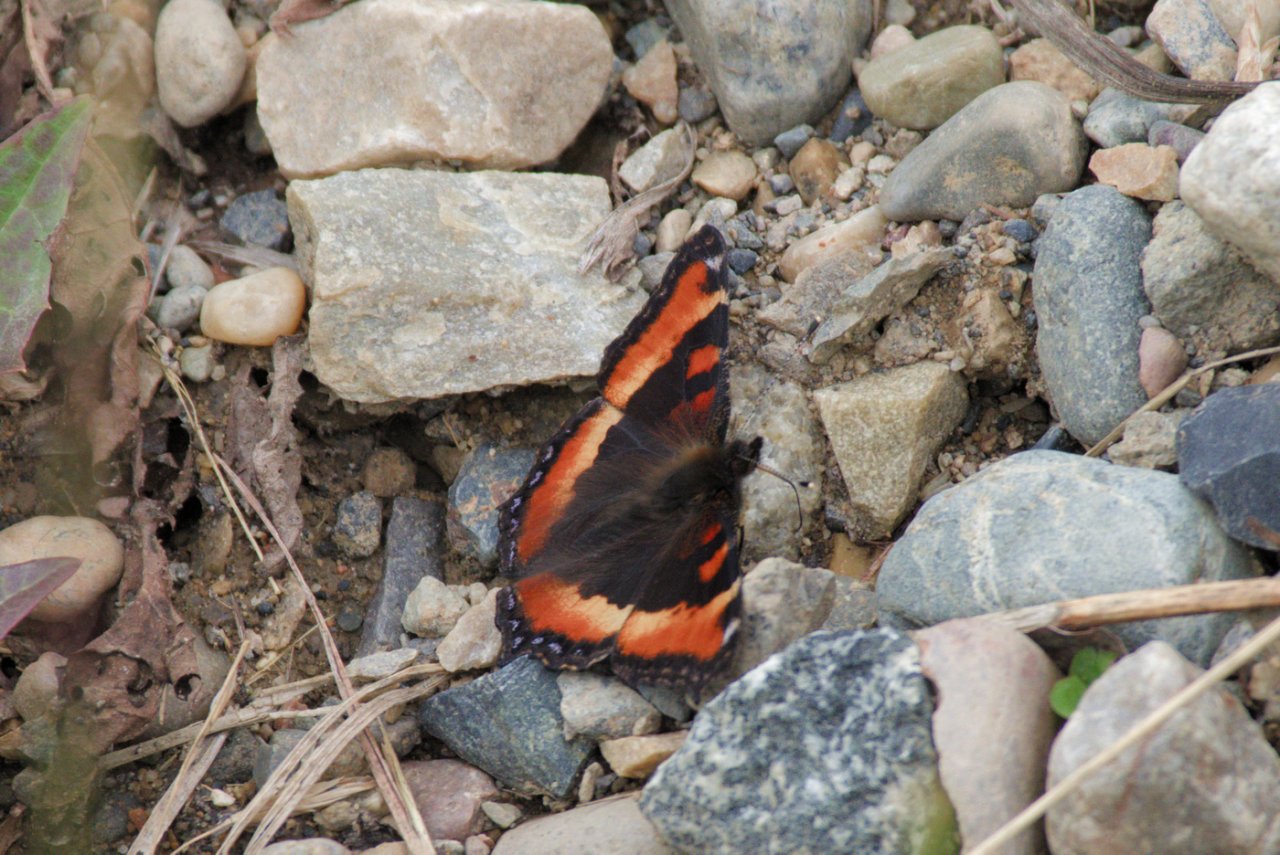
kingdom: Animalia
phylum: Arthropoda
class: Insecta
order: Lepidoptera
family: Nymphalidae
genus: Aglais
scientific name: Aglais milberti
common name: Milbert's Tortoiseshell
